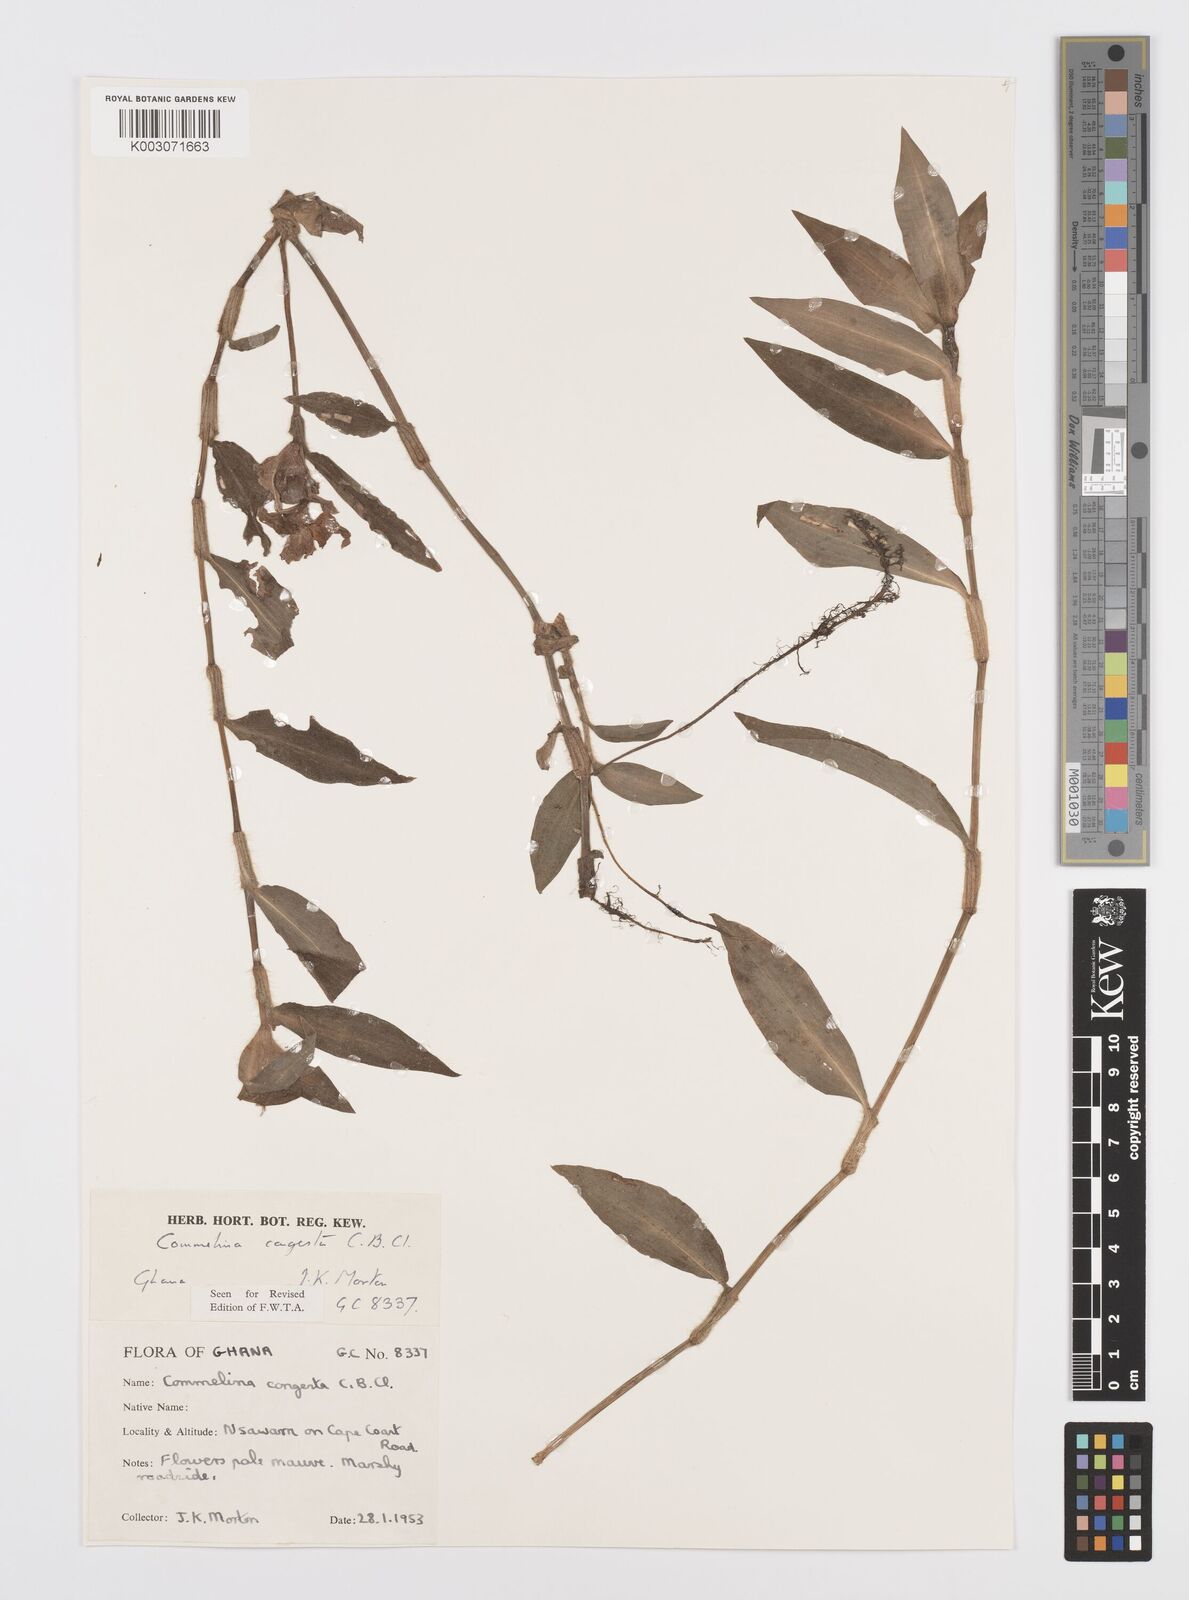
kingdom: Plantae
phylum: Tracheophyta
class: Liliopsida
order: Commelinales
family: Commelinaceae
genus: Commelina
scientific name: Commelina congesta
